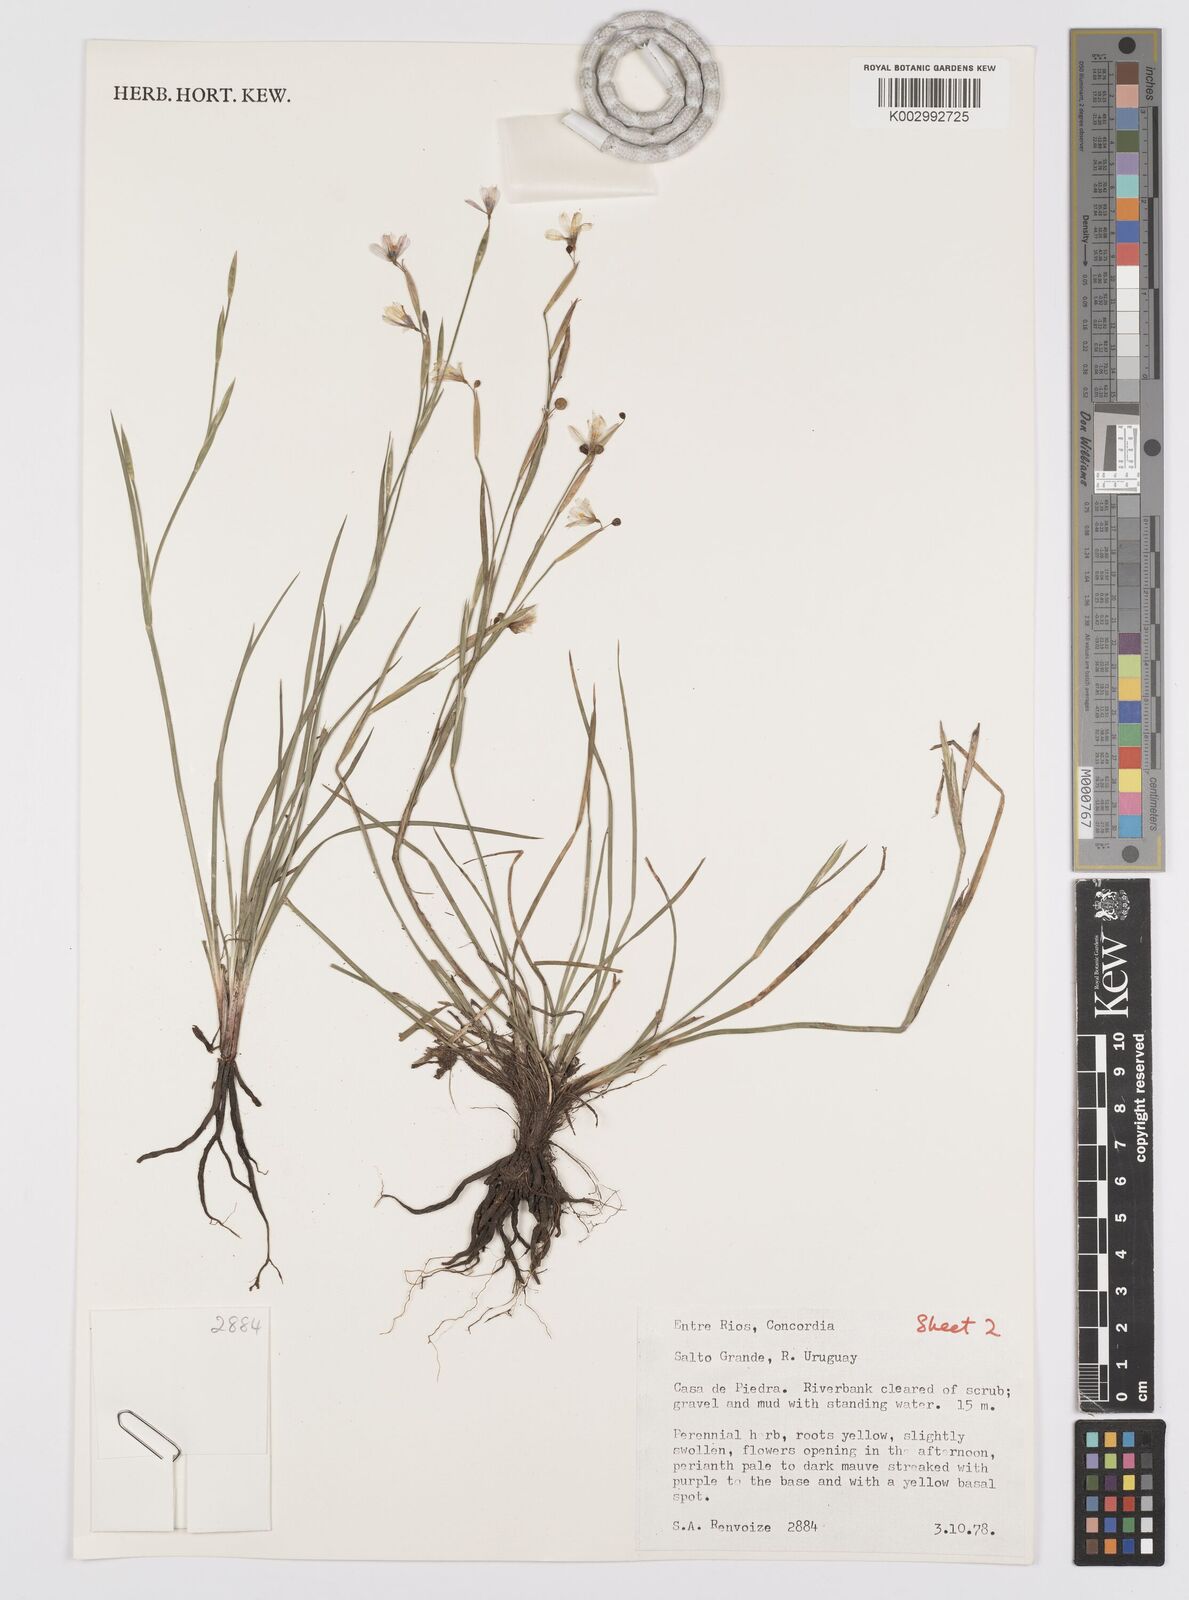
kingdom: Plantae
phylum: Tracheophyta
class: Liliopsida
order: Asparagales
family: Iridaceae
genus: Sisyrinchium
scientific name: Sisyrinchium chilense
